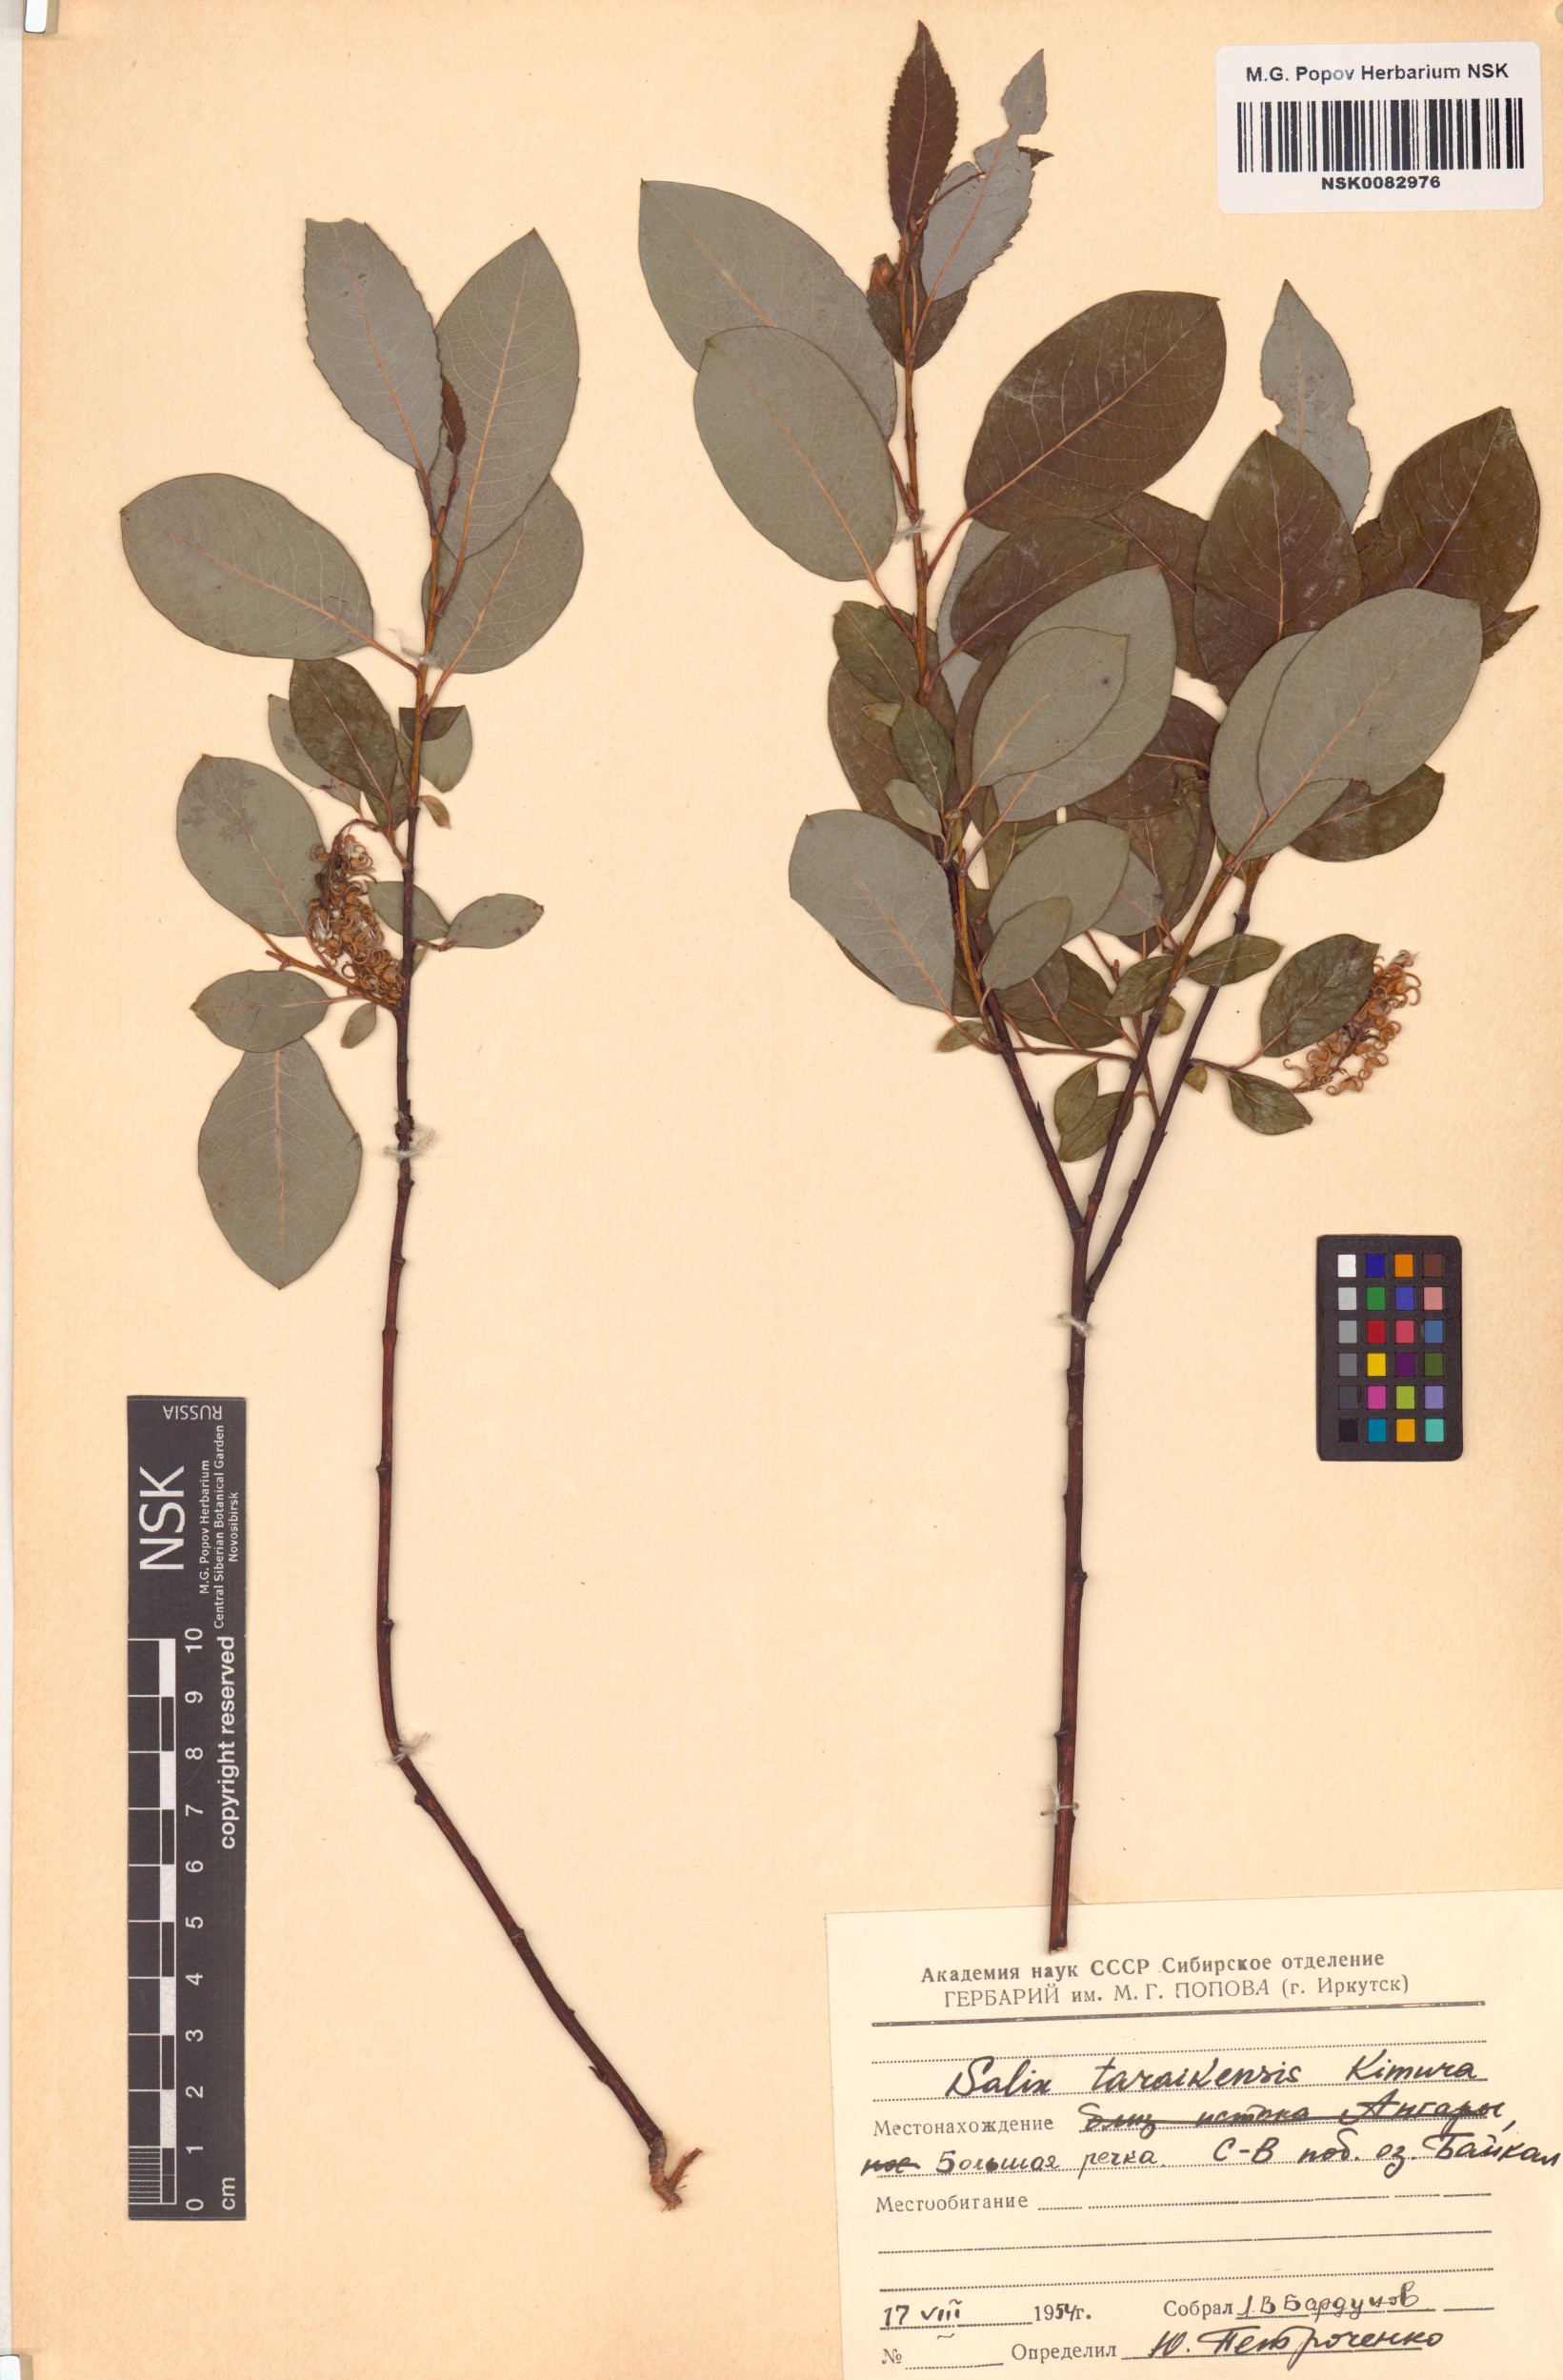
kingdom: Plantae
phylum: Tracheophyta
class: Magnoliopsida
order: Malpighiales
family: Salicaceae
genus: Salix
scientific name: Salix taraikensis
